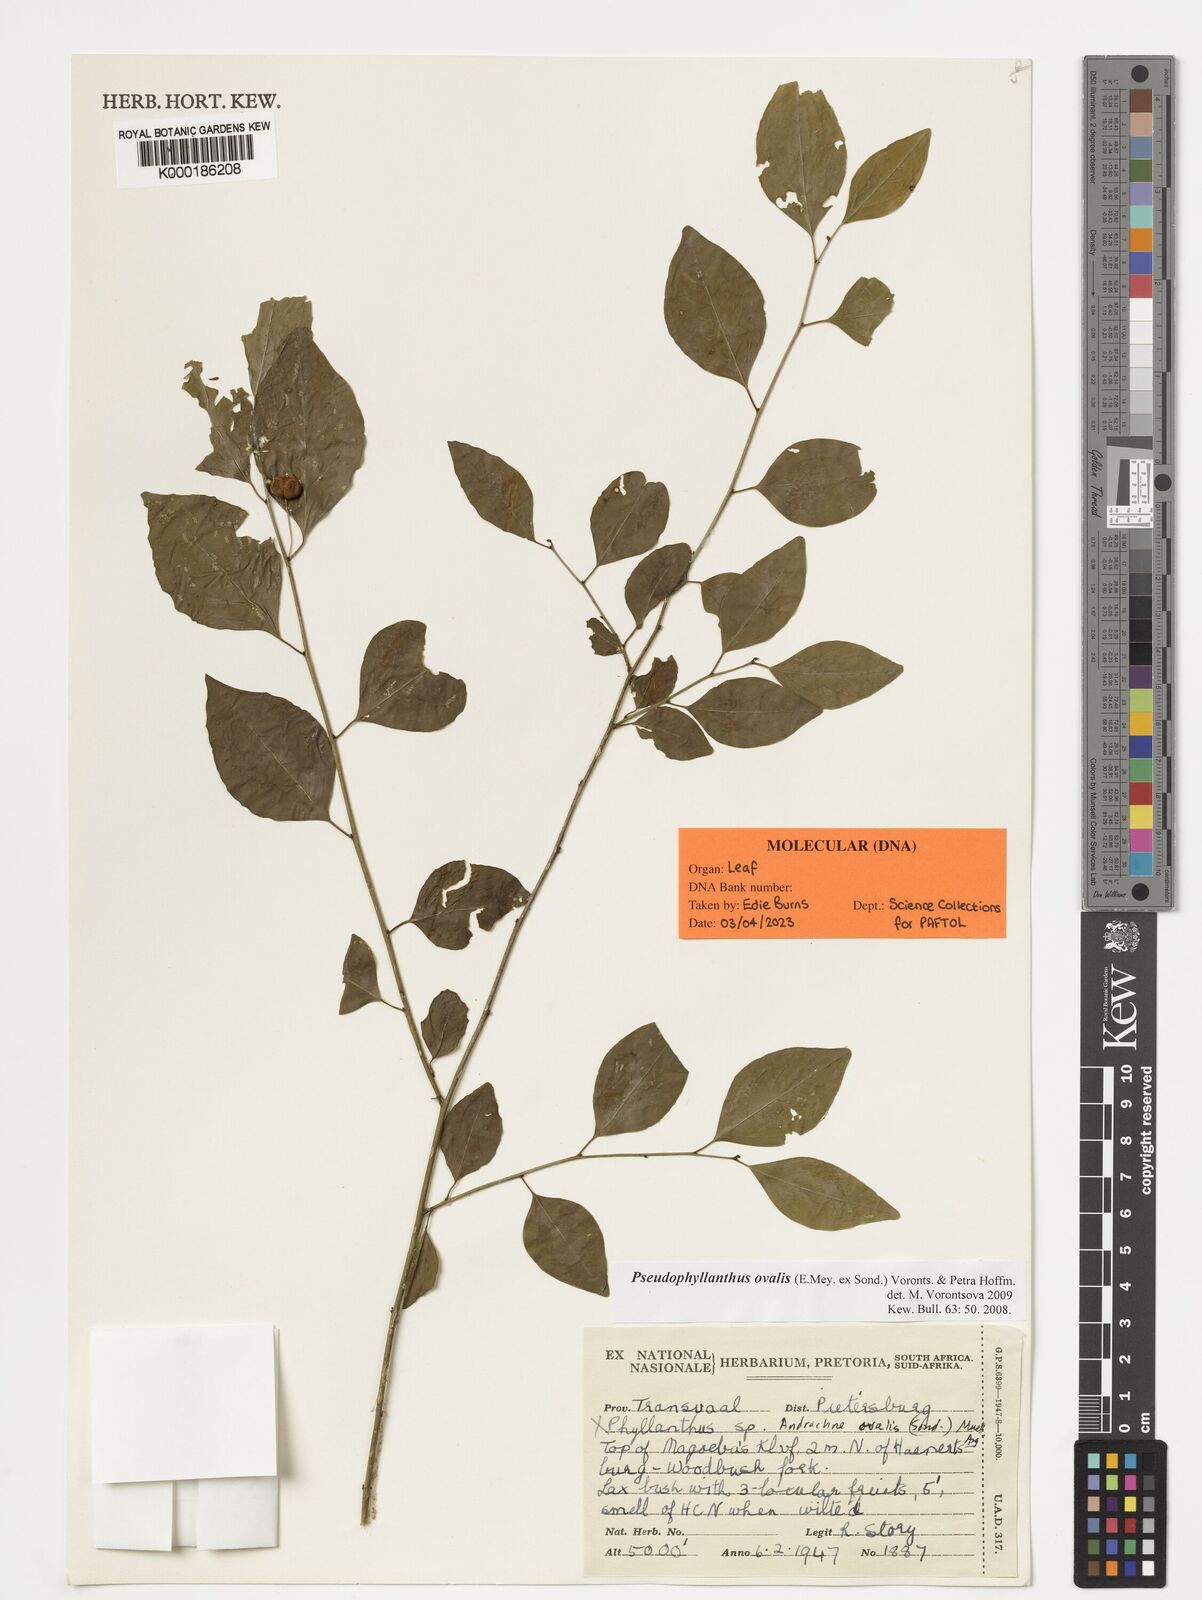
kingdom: Plantae
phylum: Tracheophyta
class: Magnoliopsida
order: Malpighiales
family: Phyllanthaceae
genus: Pseudophyllanthus
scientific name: Pseudophyllanthus ovalis
